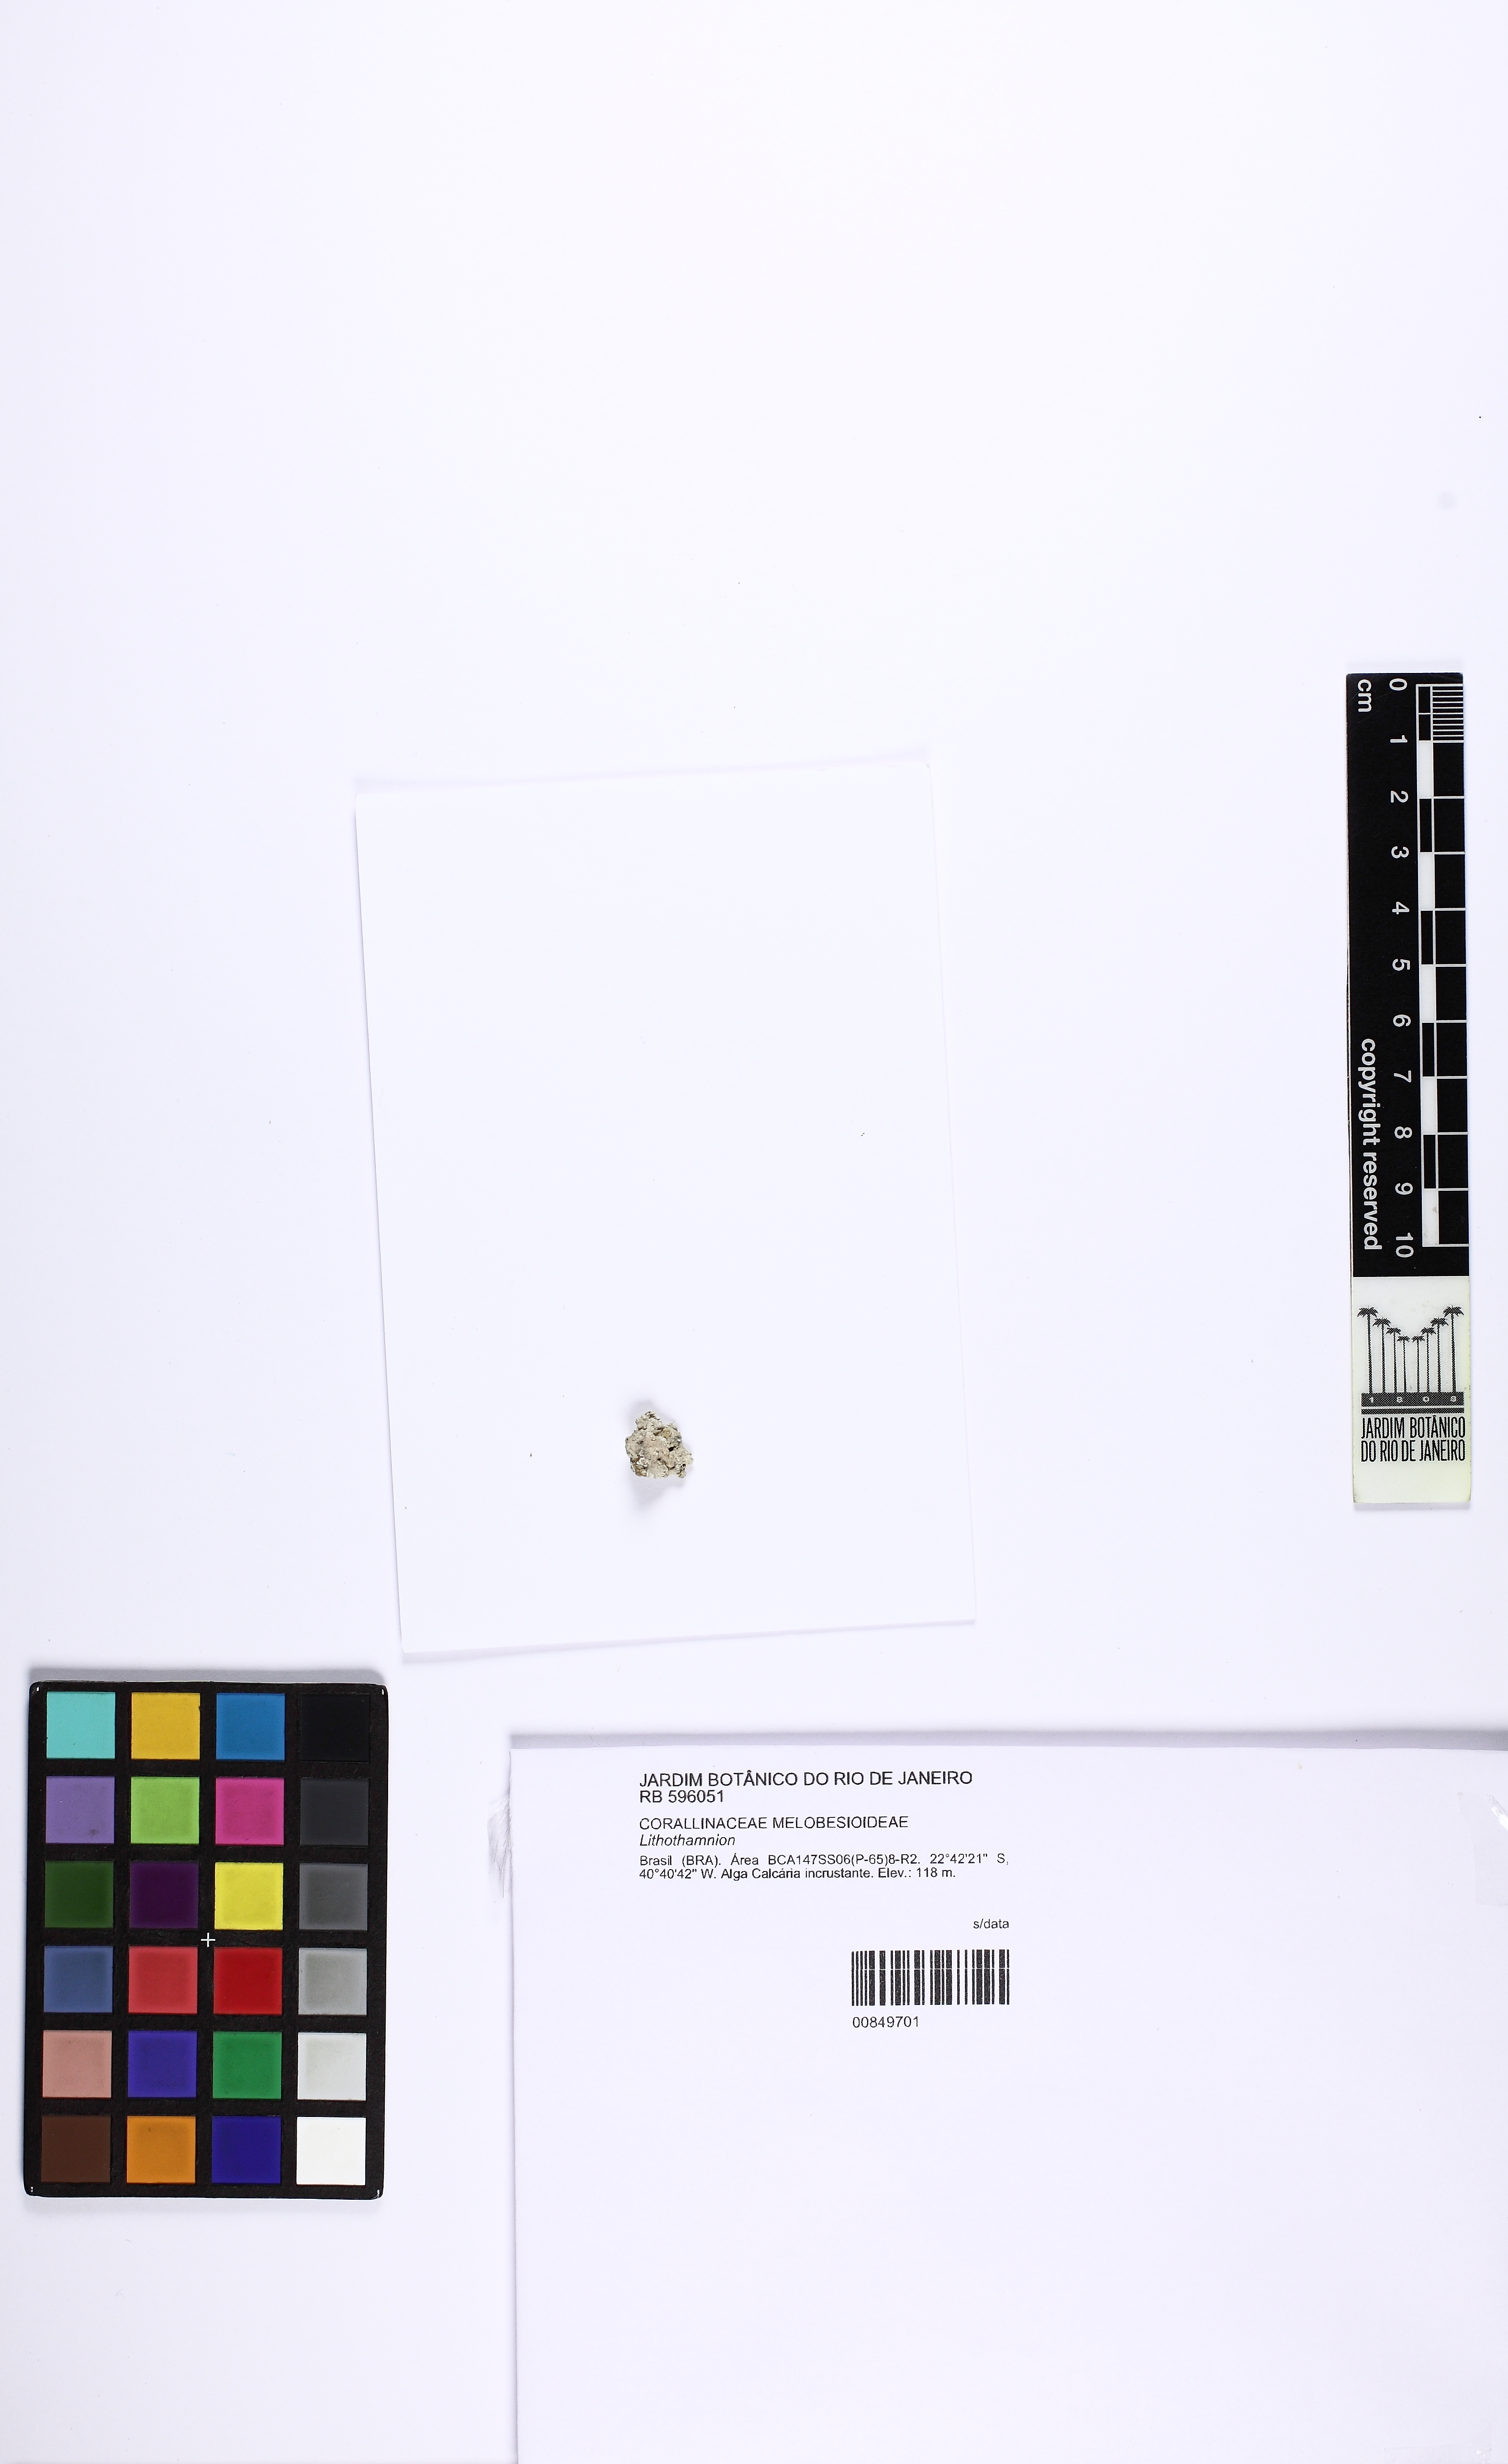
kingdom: Plantae
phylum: Rhodophyta
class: Florideophyceae
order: Corallinales
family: Hapalidiaceae
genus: Lithothamnion
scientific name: Lithothamnion
